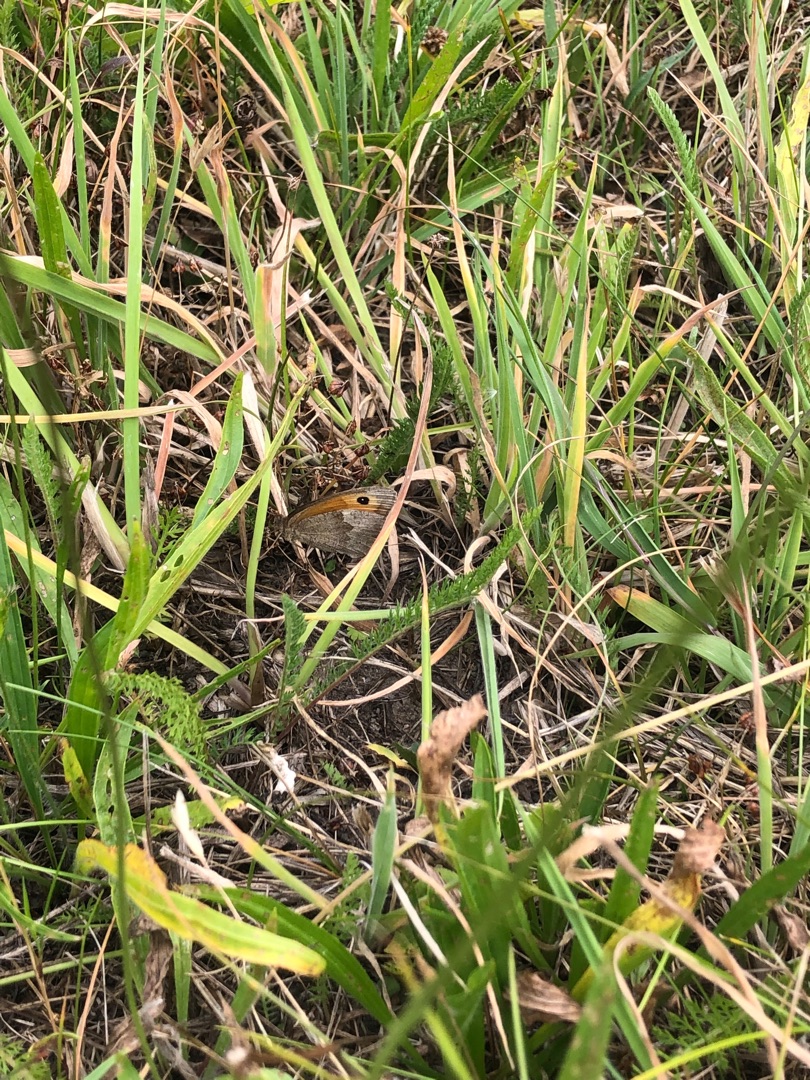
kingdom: Animalia
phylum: Arthropoda
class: Insecta
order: Lepidoptera
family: Nymphalidae
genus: Maniola
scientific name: Maniola jurtina
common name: Græsrandøje
